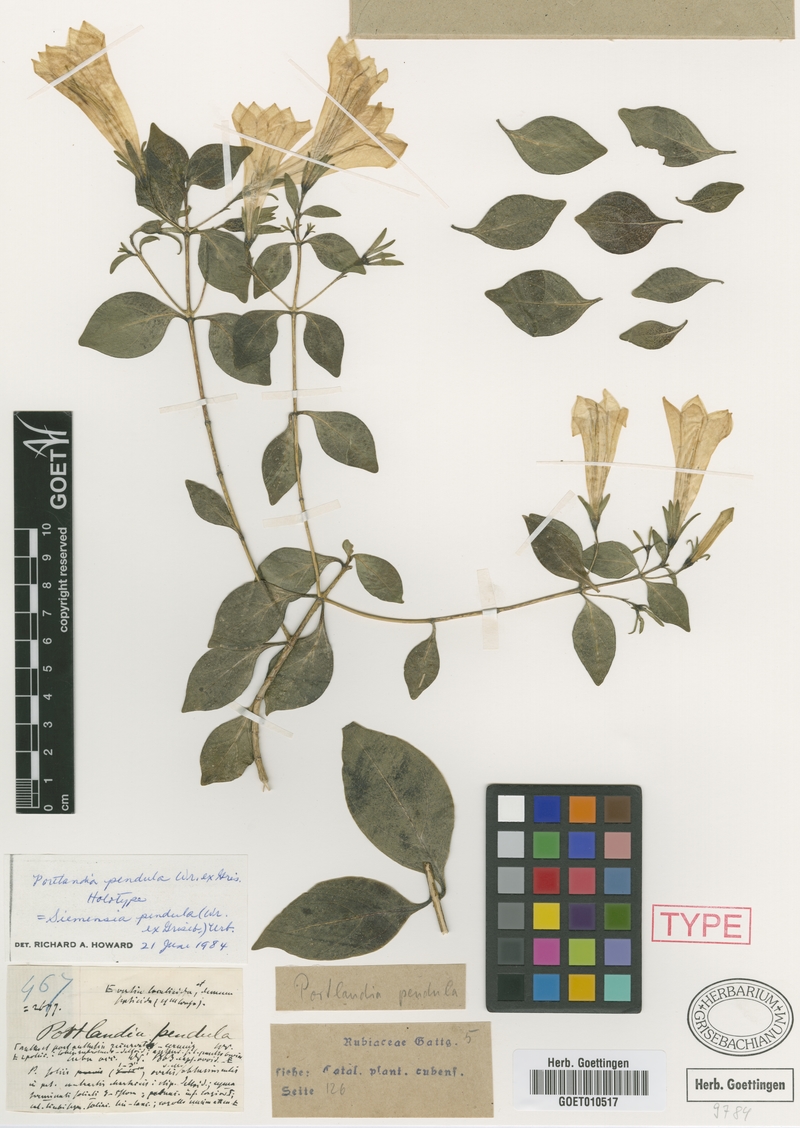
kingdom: Plantae
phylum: Tracheophyta
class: Magnoliopsida
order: Gentianales
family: Rubiaceae
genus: Siemensia
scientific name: Siemensia pendula
